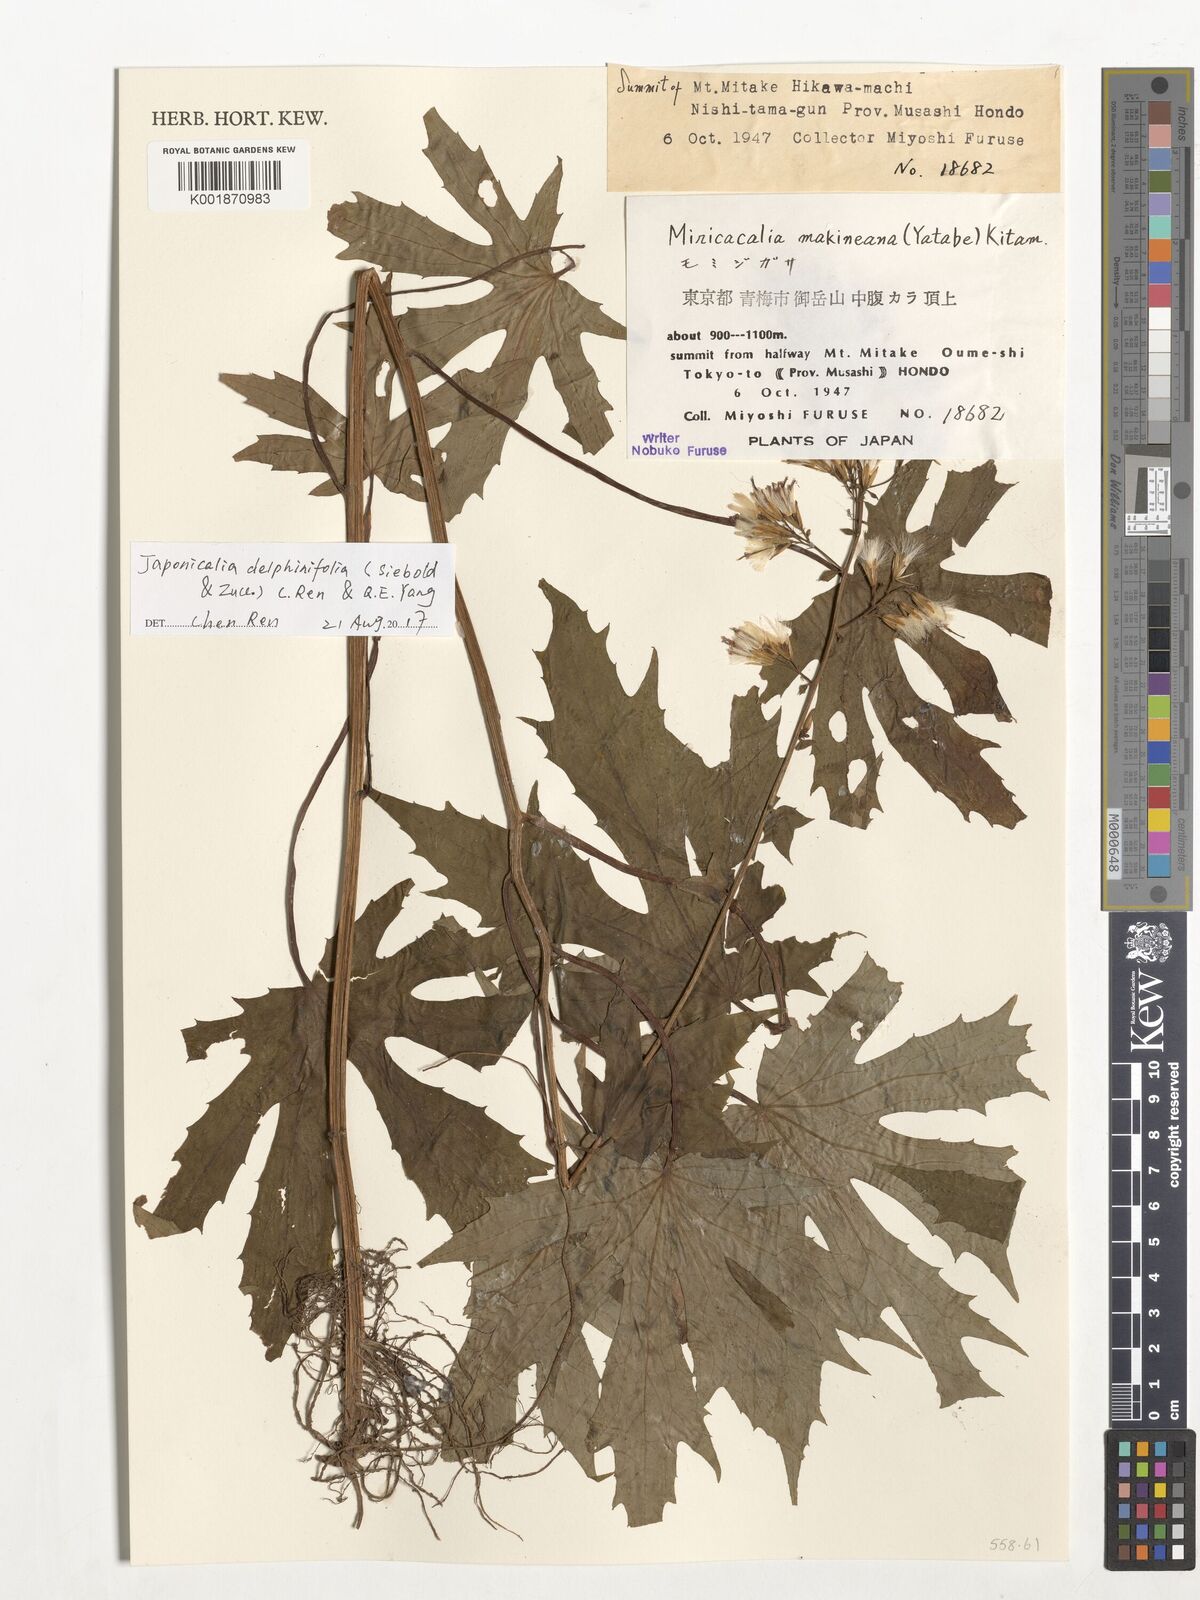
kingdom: Plantae
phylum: Tracheophyta
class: Magnoliopsida
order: Asterales
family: Asteraceae
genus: Japonicalia
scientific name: Japonicalia delphiniifolia
